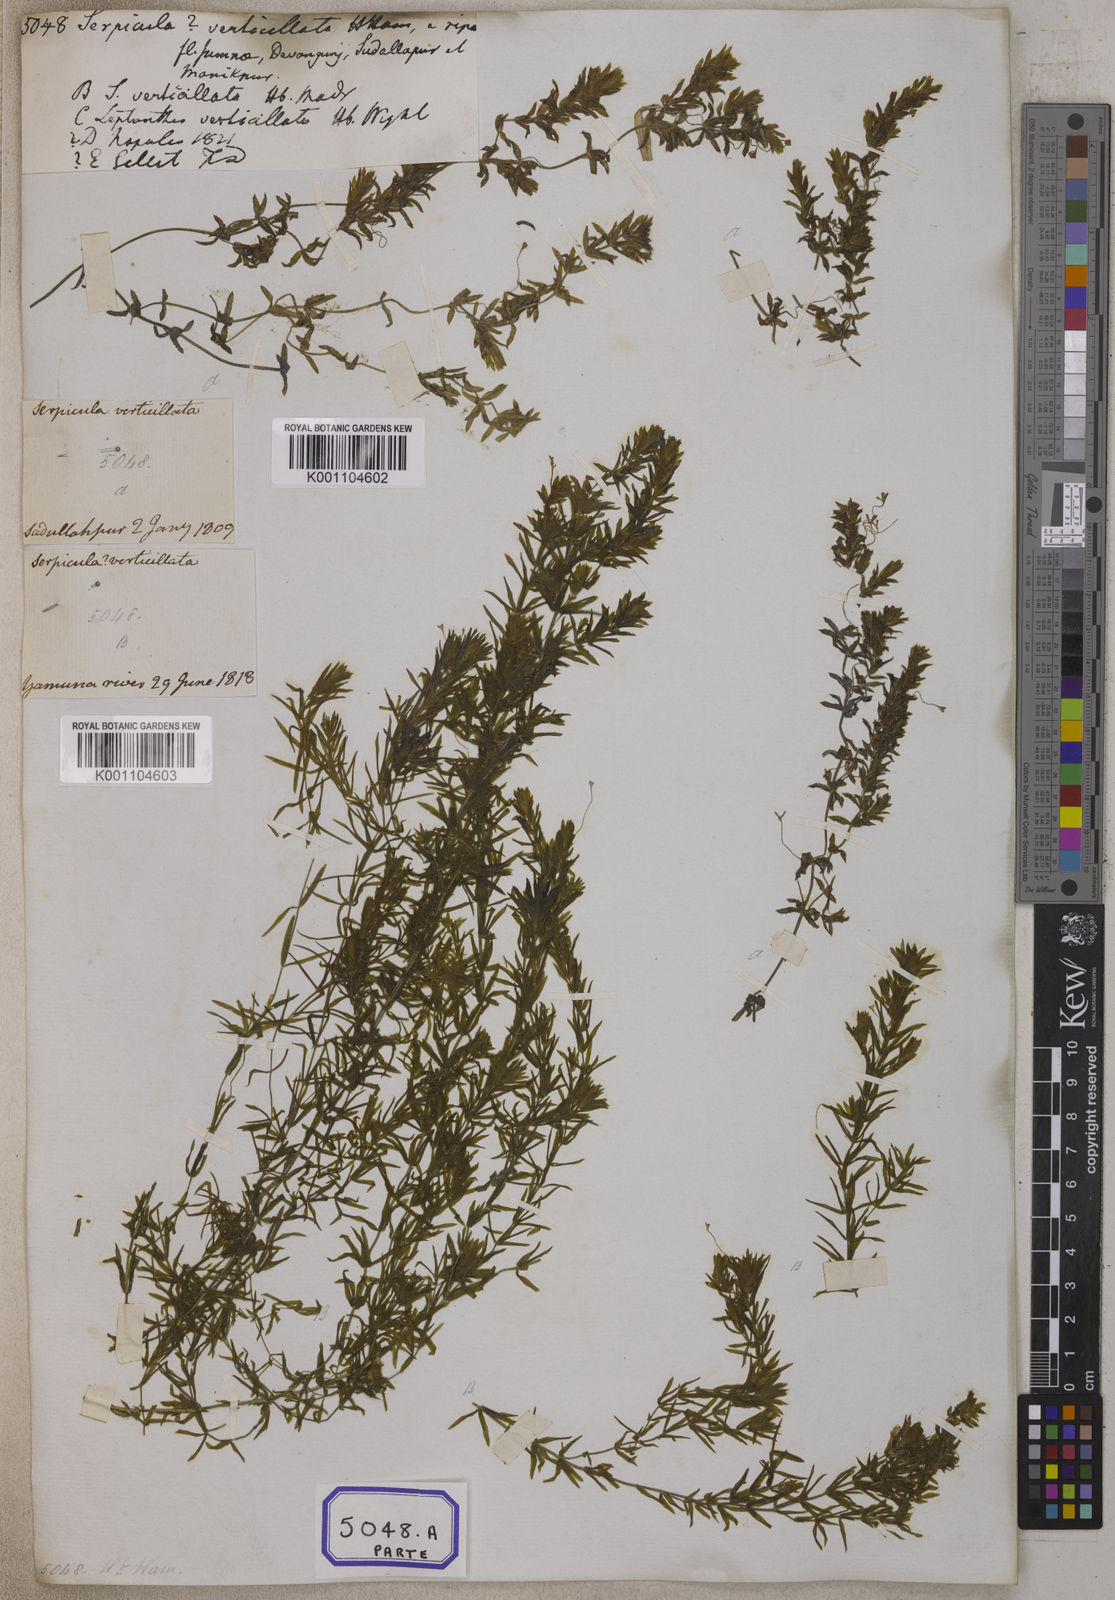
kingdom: Plantae
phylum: Tracheophyta
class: Magnoliopsida
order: Saxifragales
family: Haloragaceae
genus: Serpicula
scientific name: Serpicula
